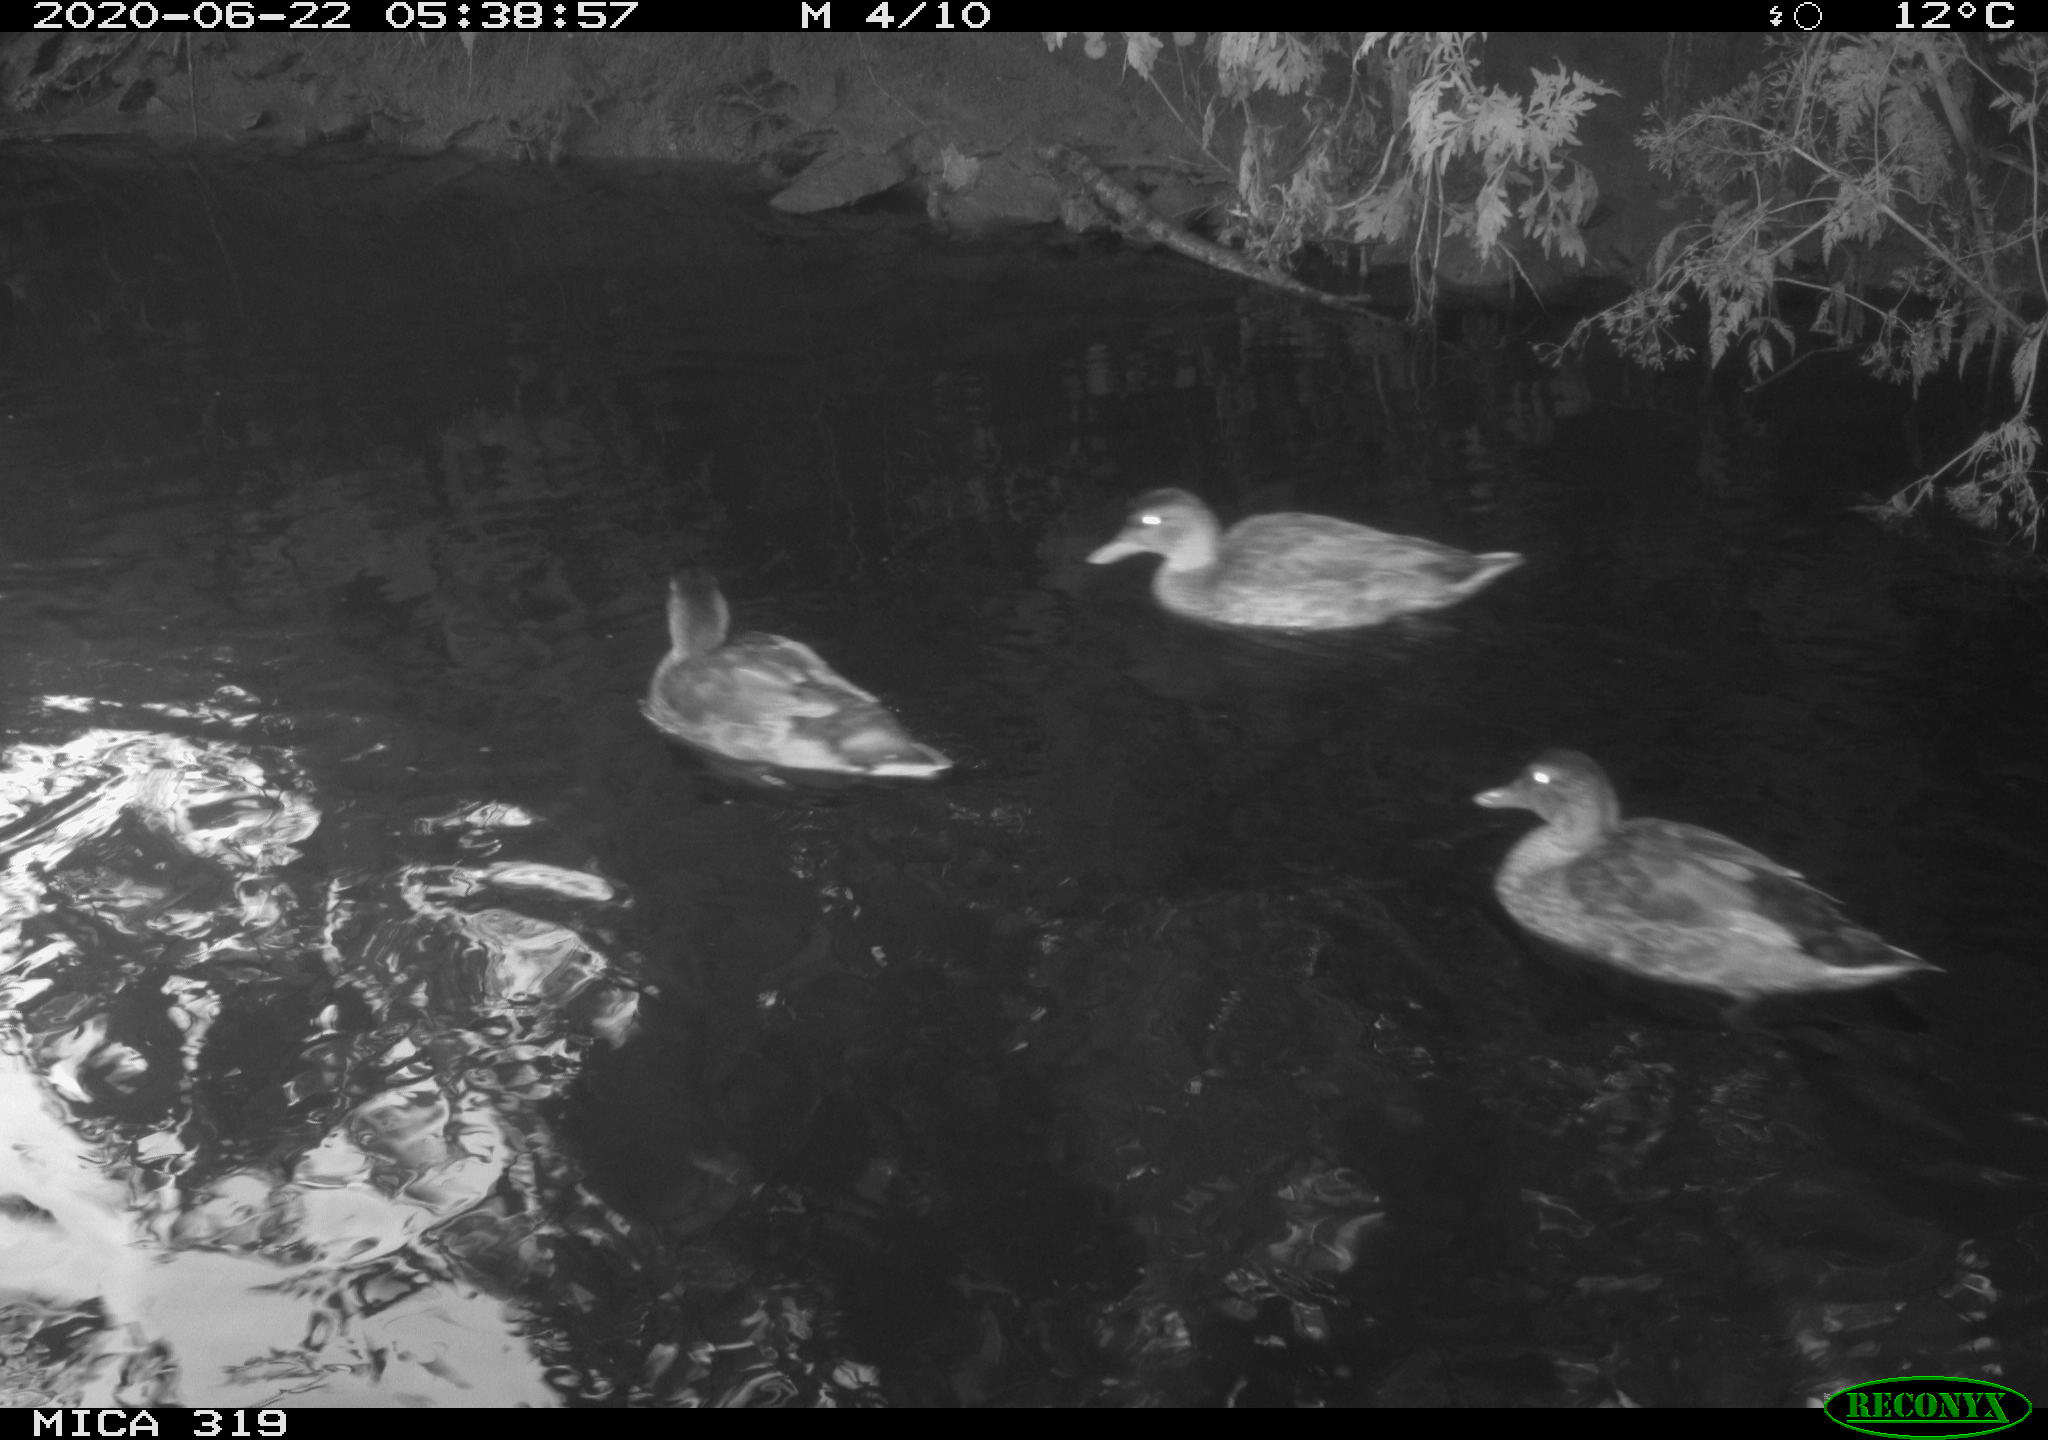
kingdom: Animalia
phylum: Chordata
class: Aves
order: Anseriformes
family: Anatidae
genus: Anas
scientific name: Anas platyrhynchos
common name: Mallard
